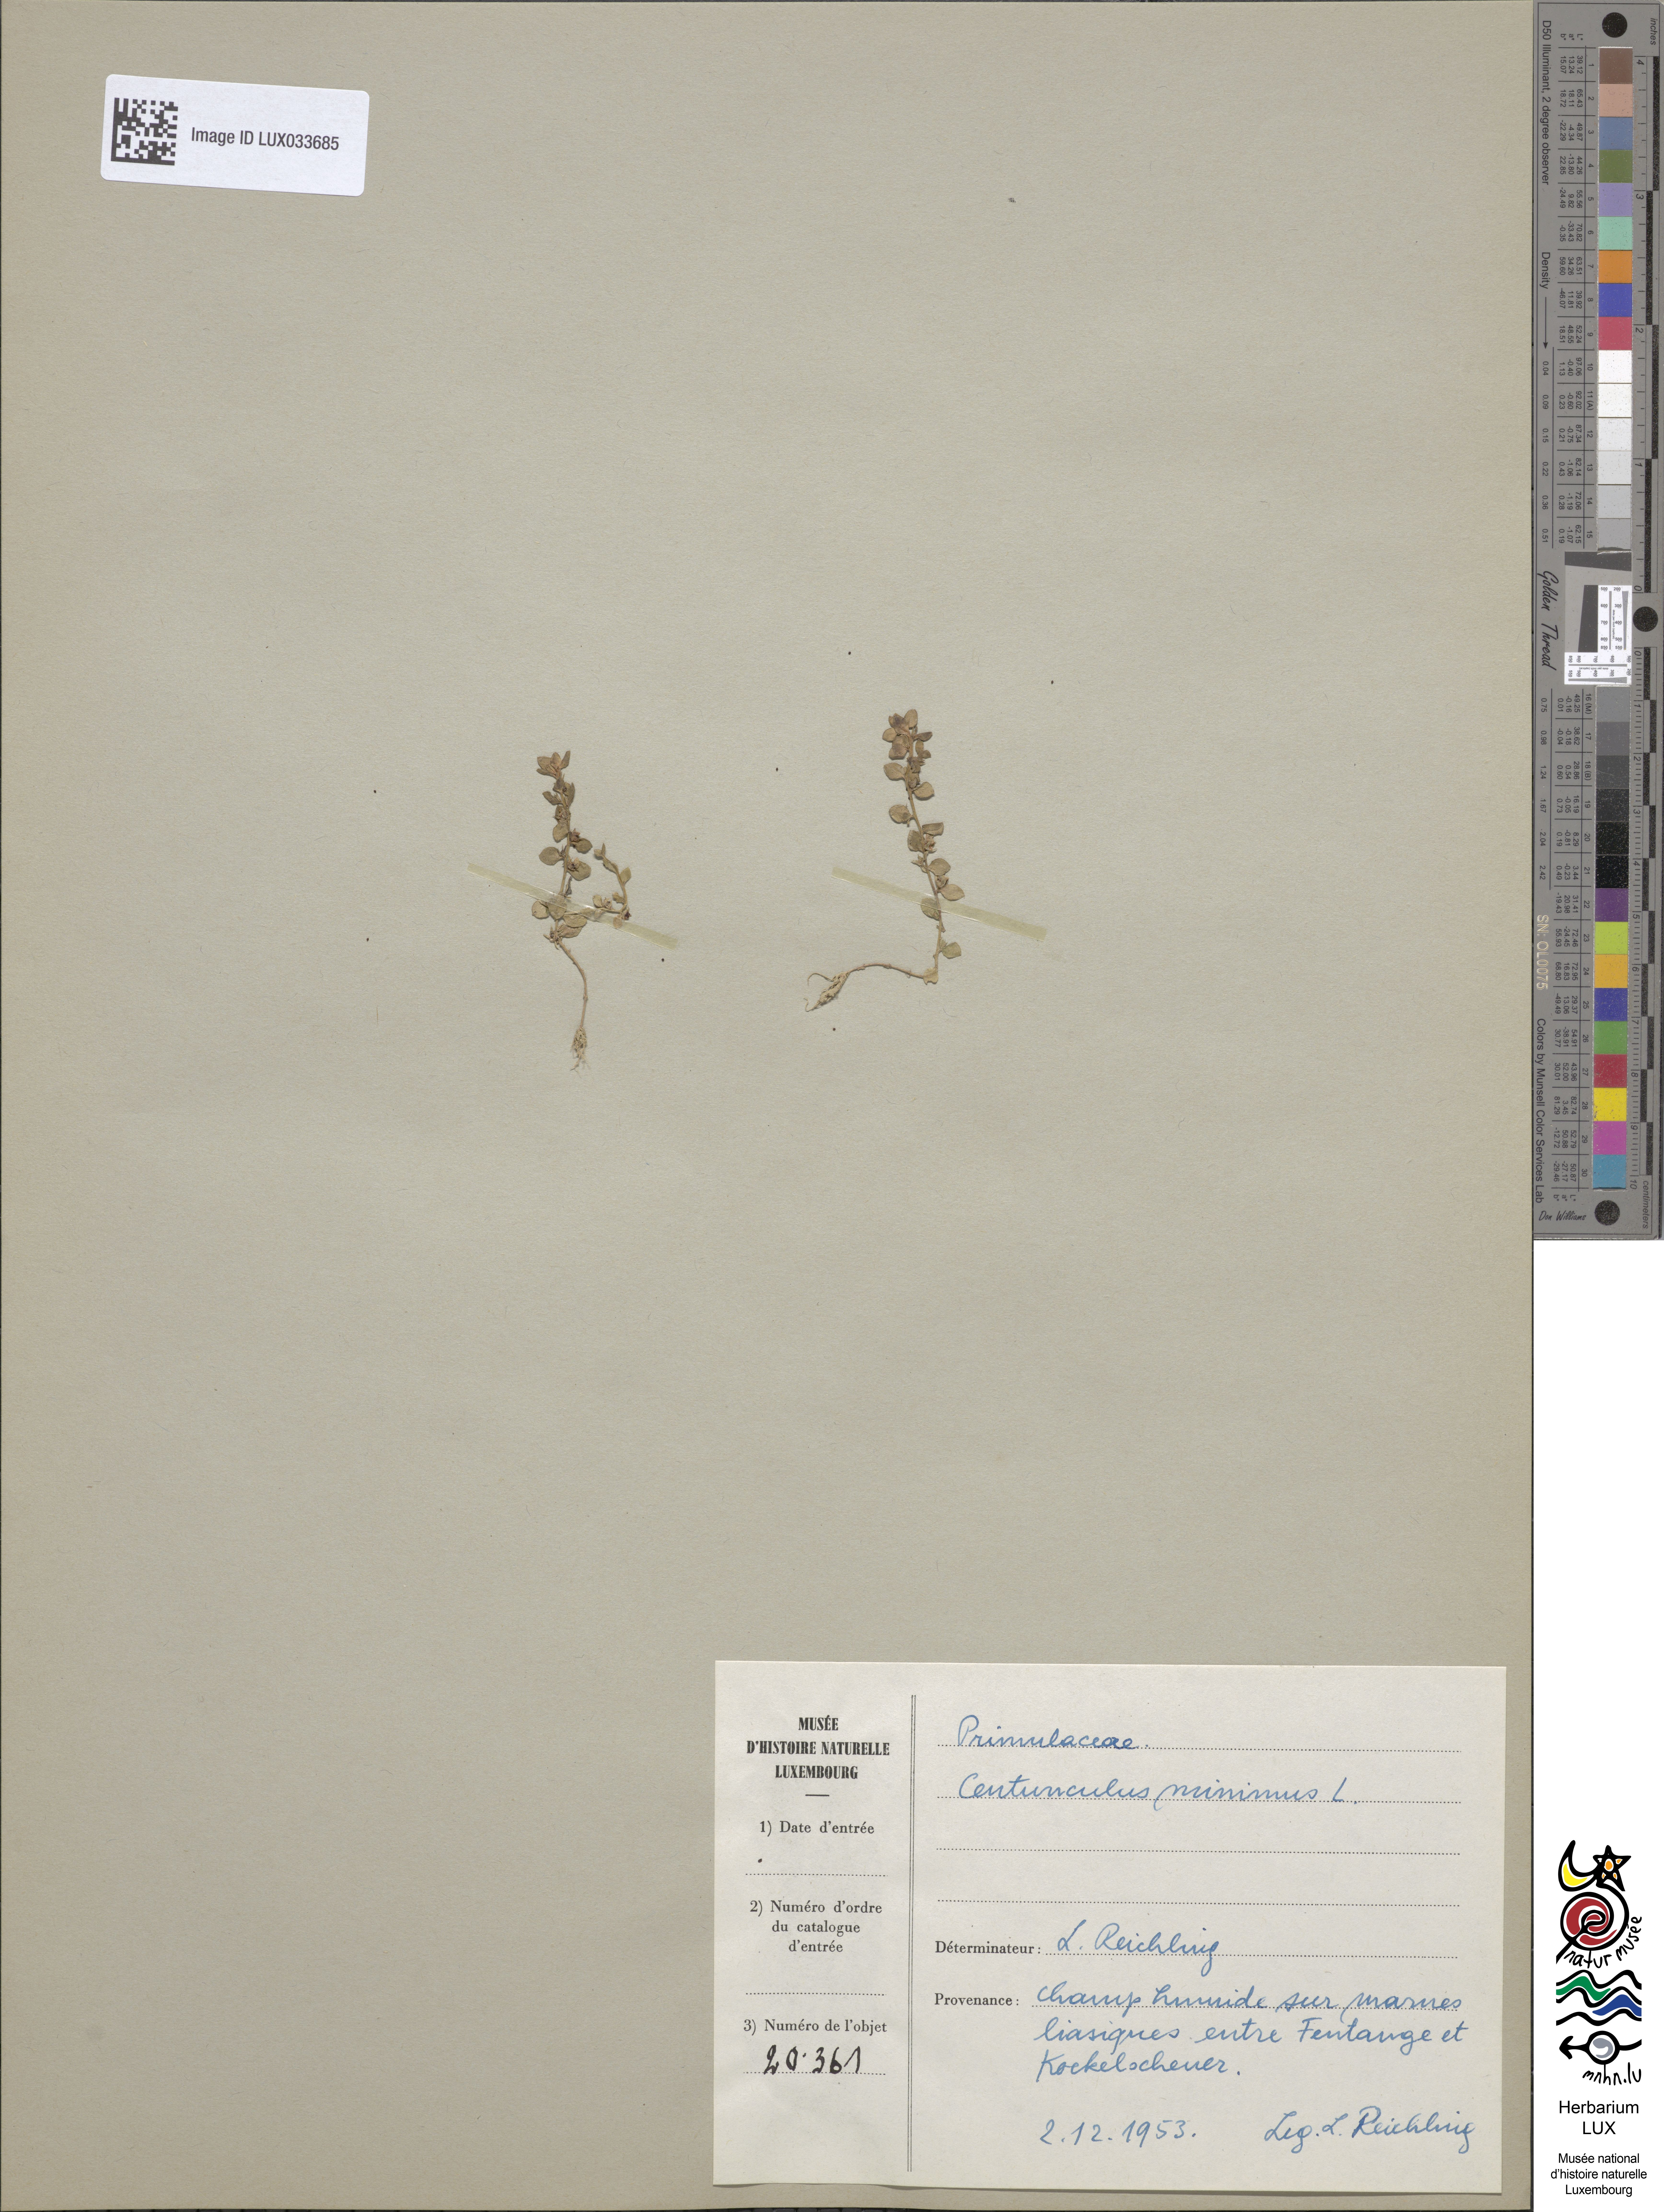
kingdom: Plantae
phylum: Tracheophyta
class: Magnoliopsida
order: Ericales
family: Primulaceae
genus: Lysimachia
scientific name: Lysimachia minima
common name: Chaffweed
